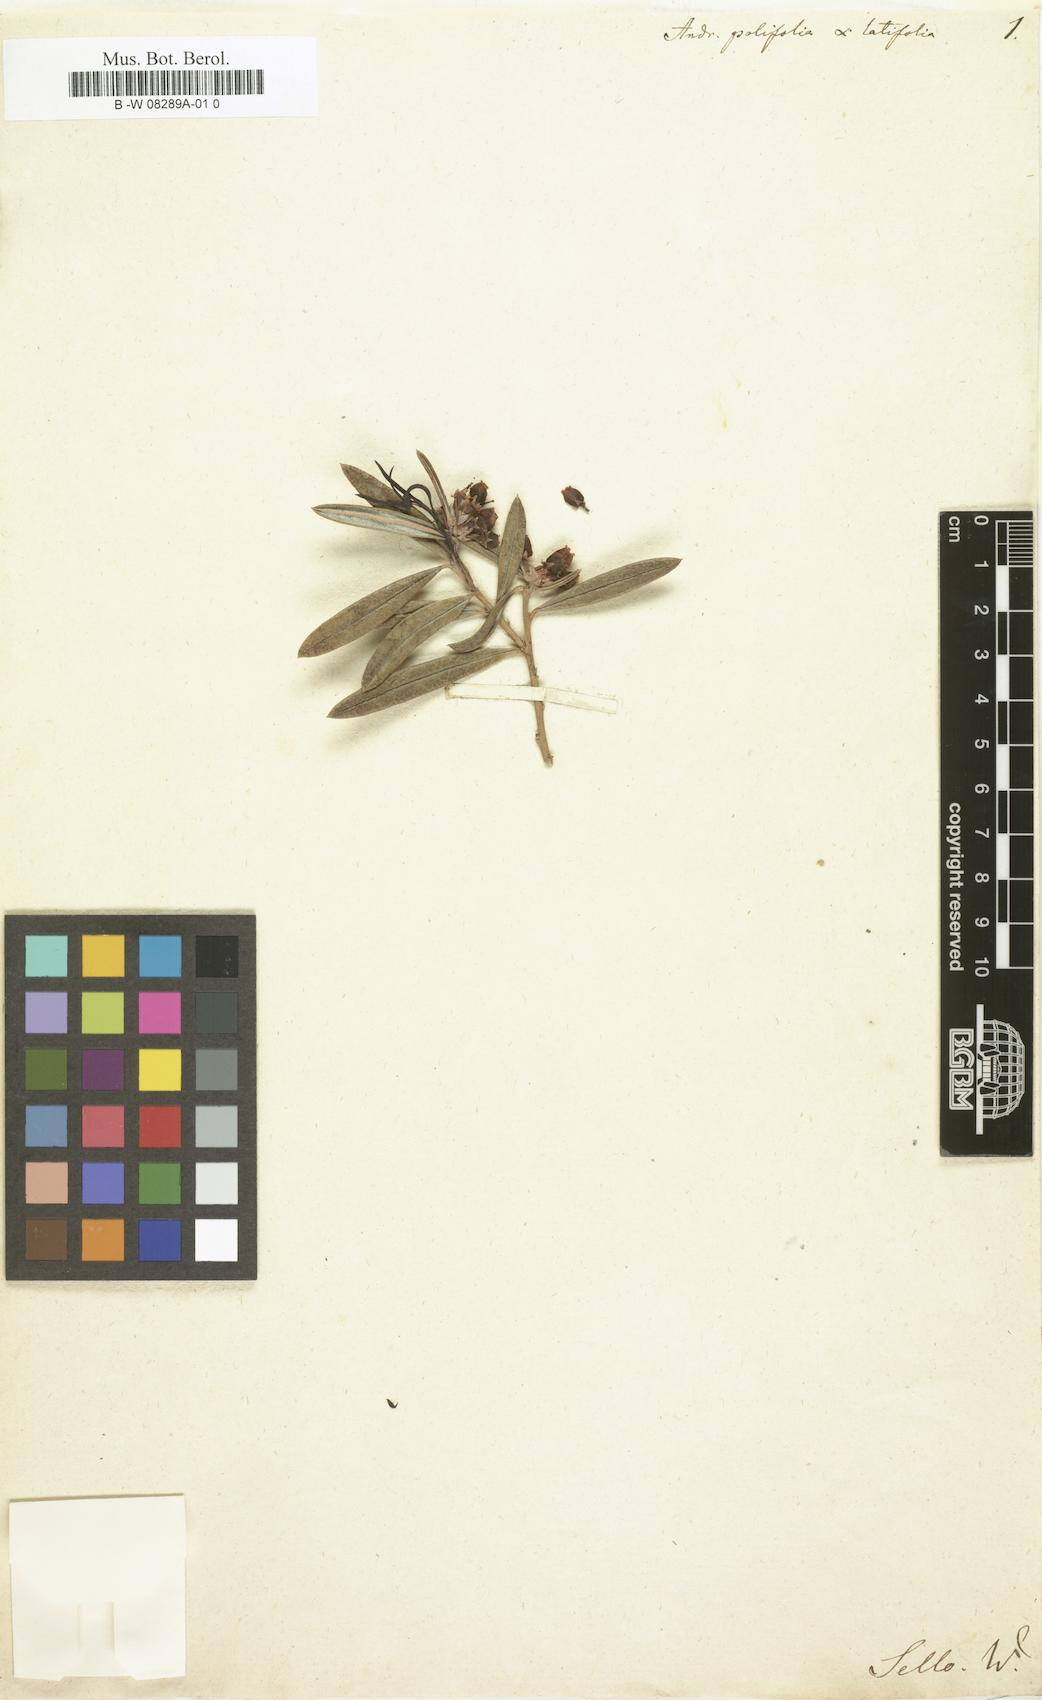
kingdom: Plantae
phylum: Tracheophyta
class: Magnoliopsida
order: Ericales
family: Ericaceae
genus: Andromeda
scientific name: Andromeda polifolia
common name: Bog-rosemary
